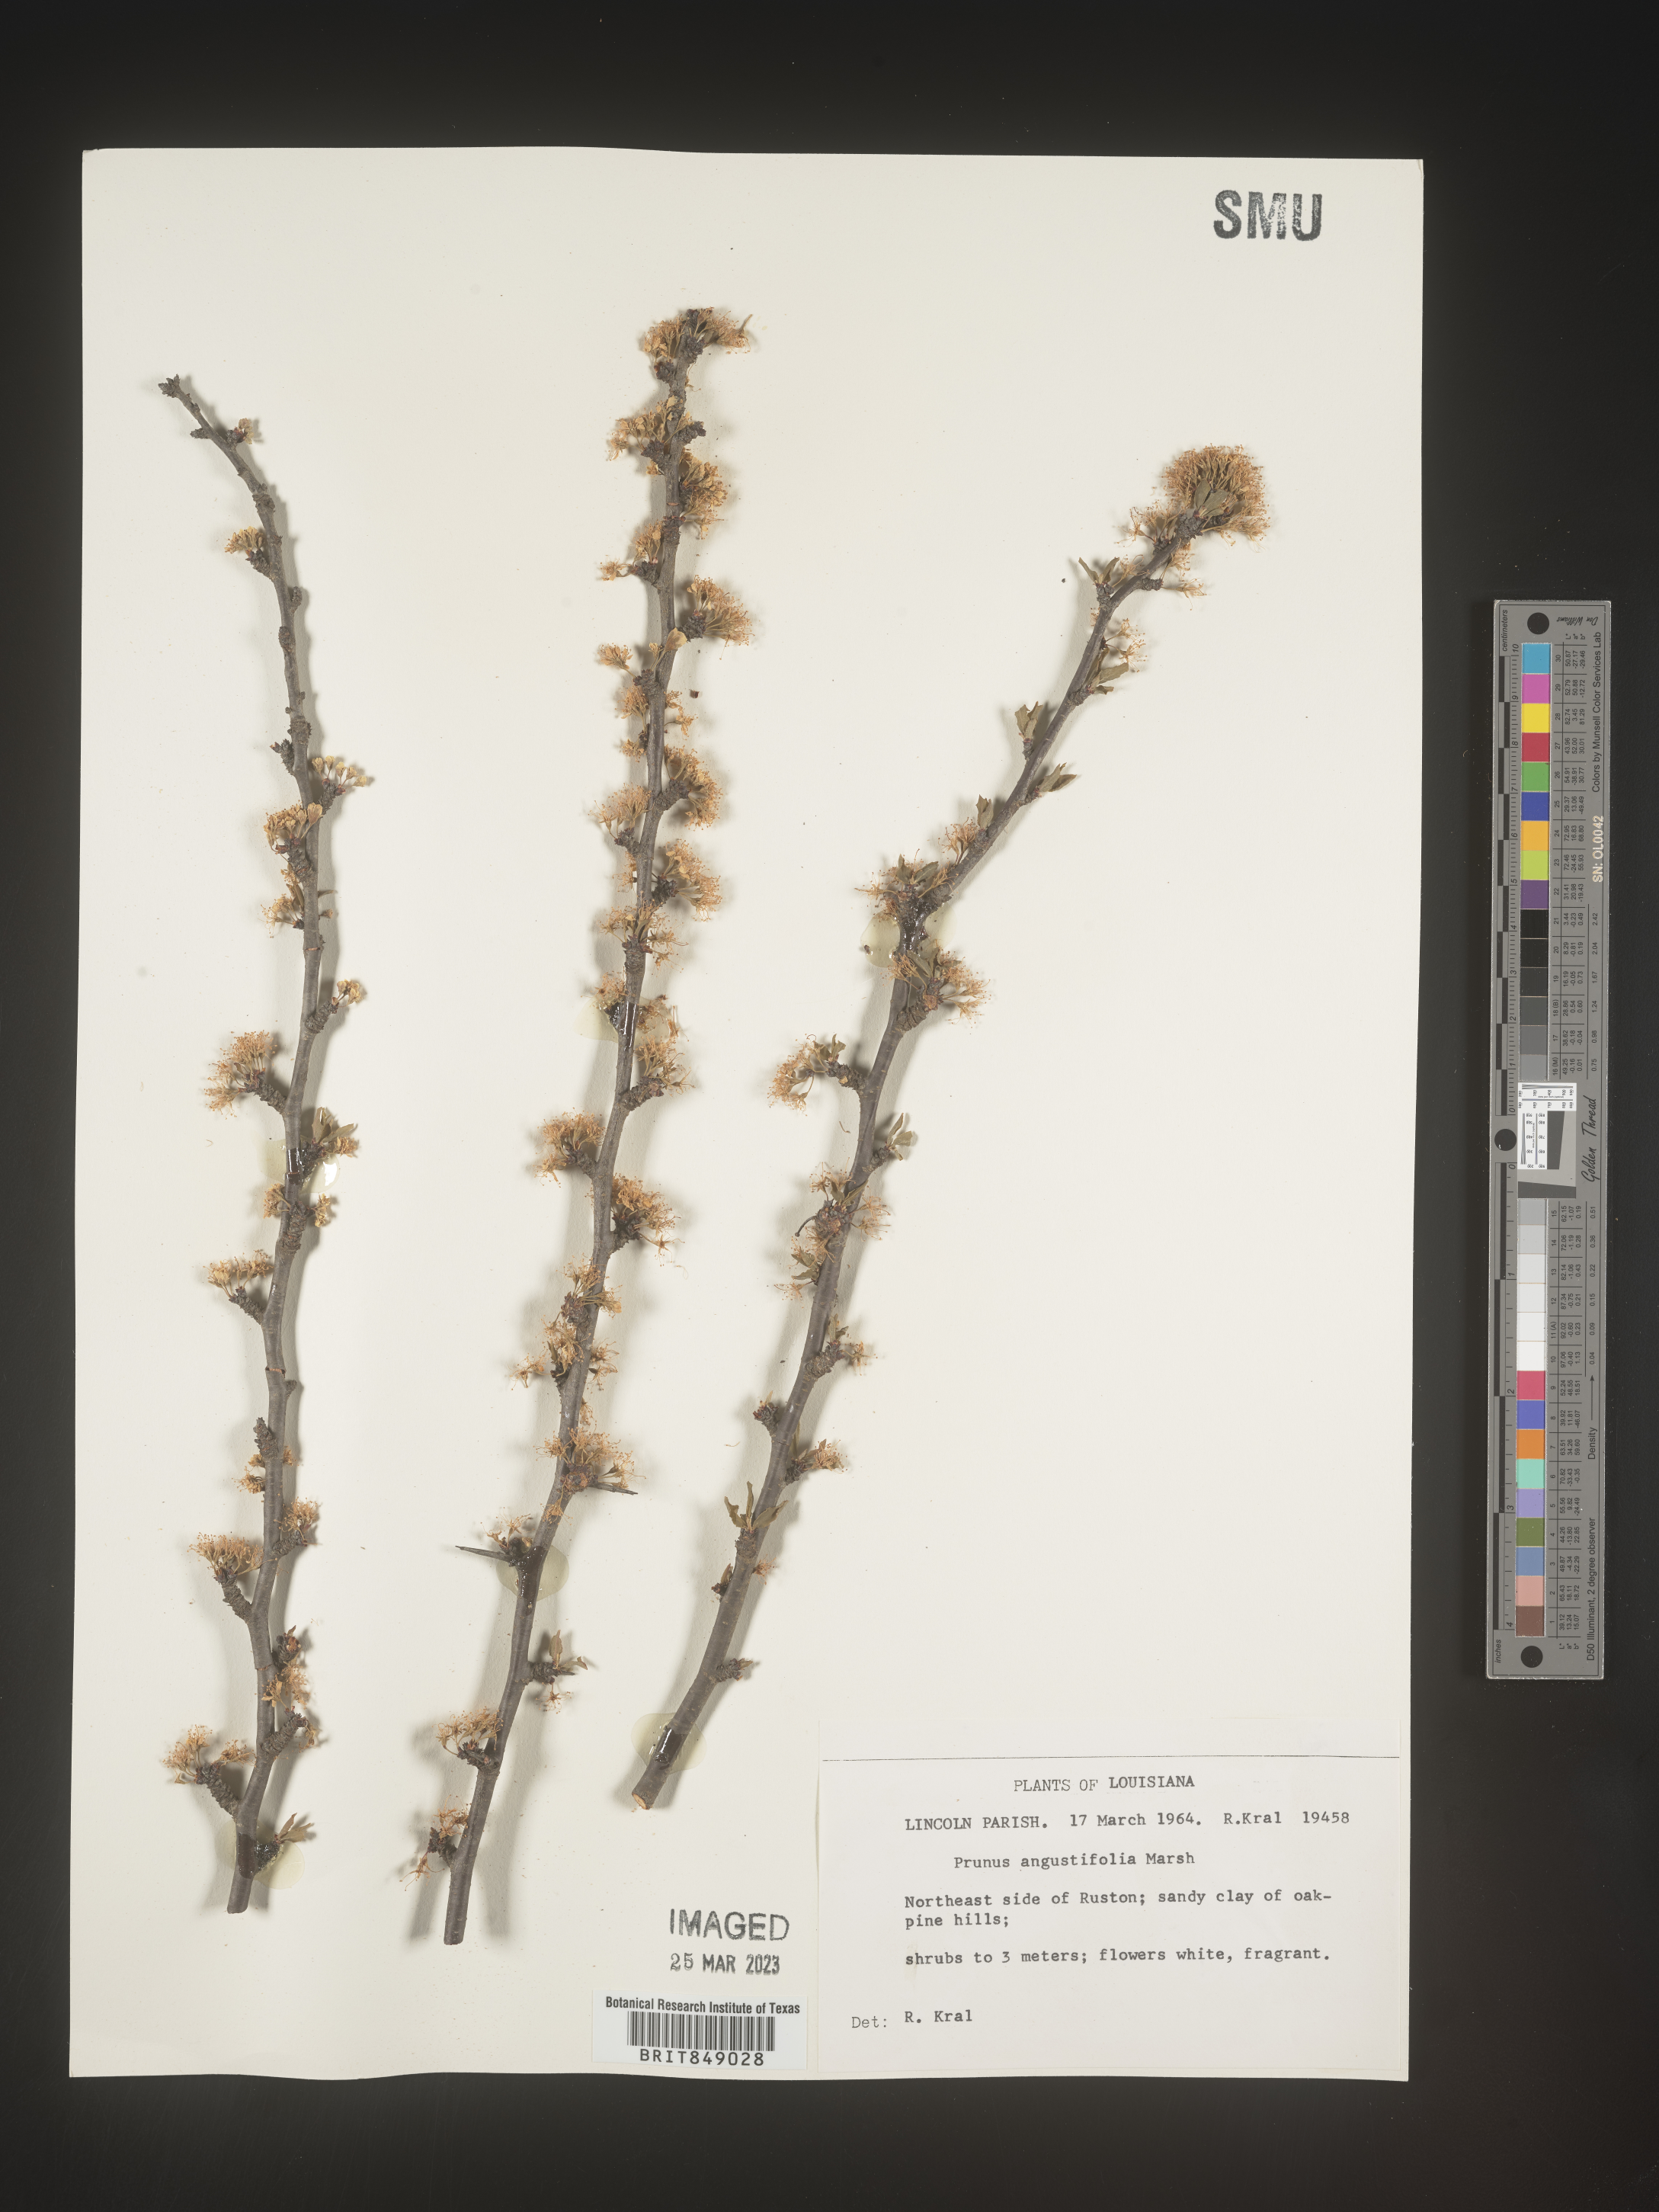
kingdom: Plantae
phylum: Tracheophyta
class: Magnoliopsida
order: Rosales
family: Rosaceae
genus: Prunus
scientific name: Prunus angustifolia
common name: Cherokee plum
